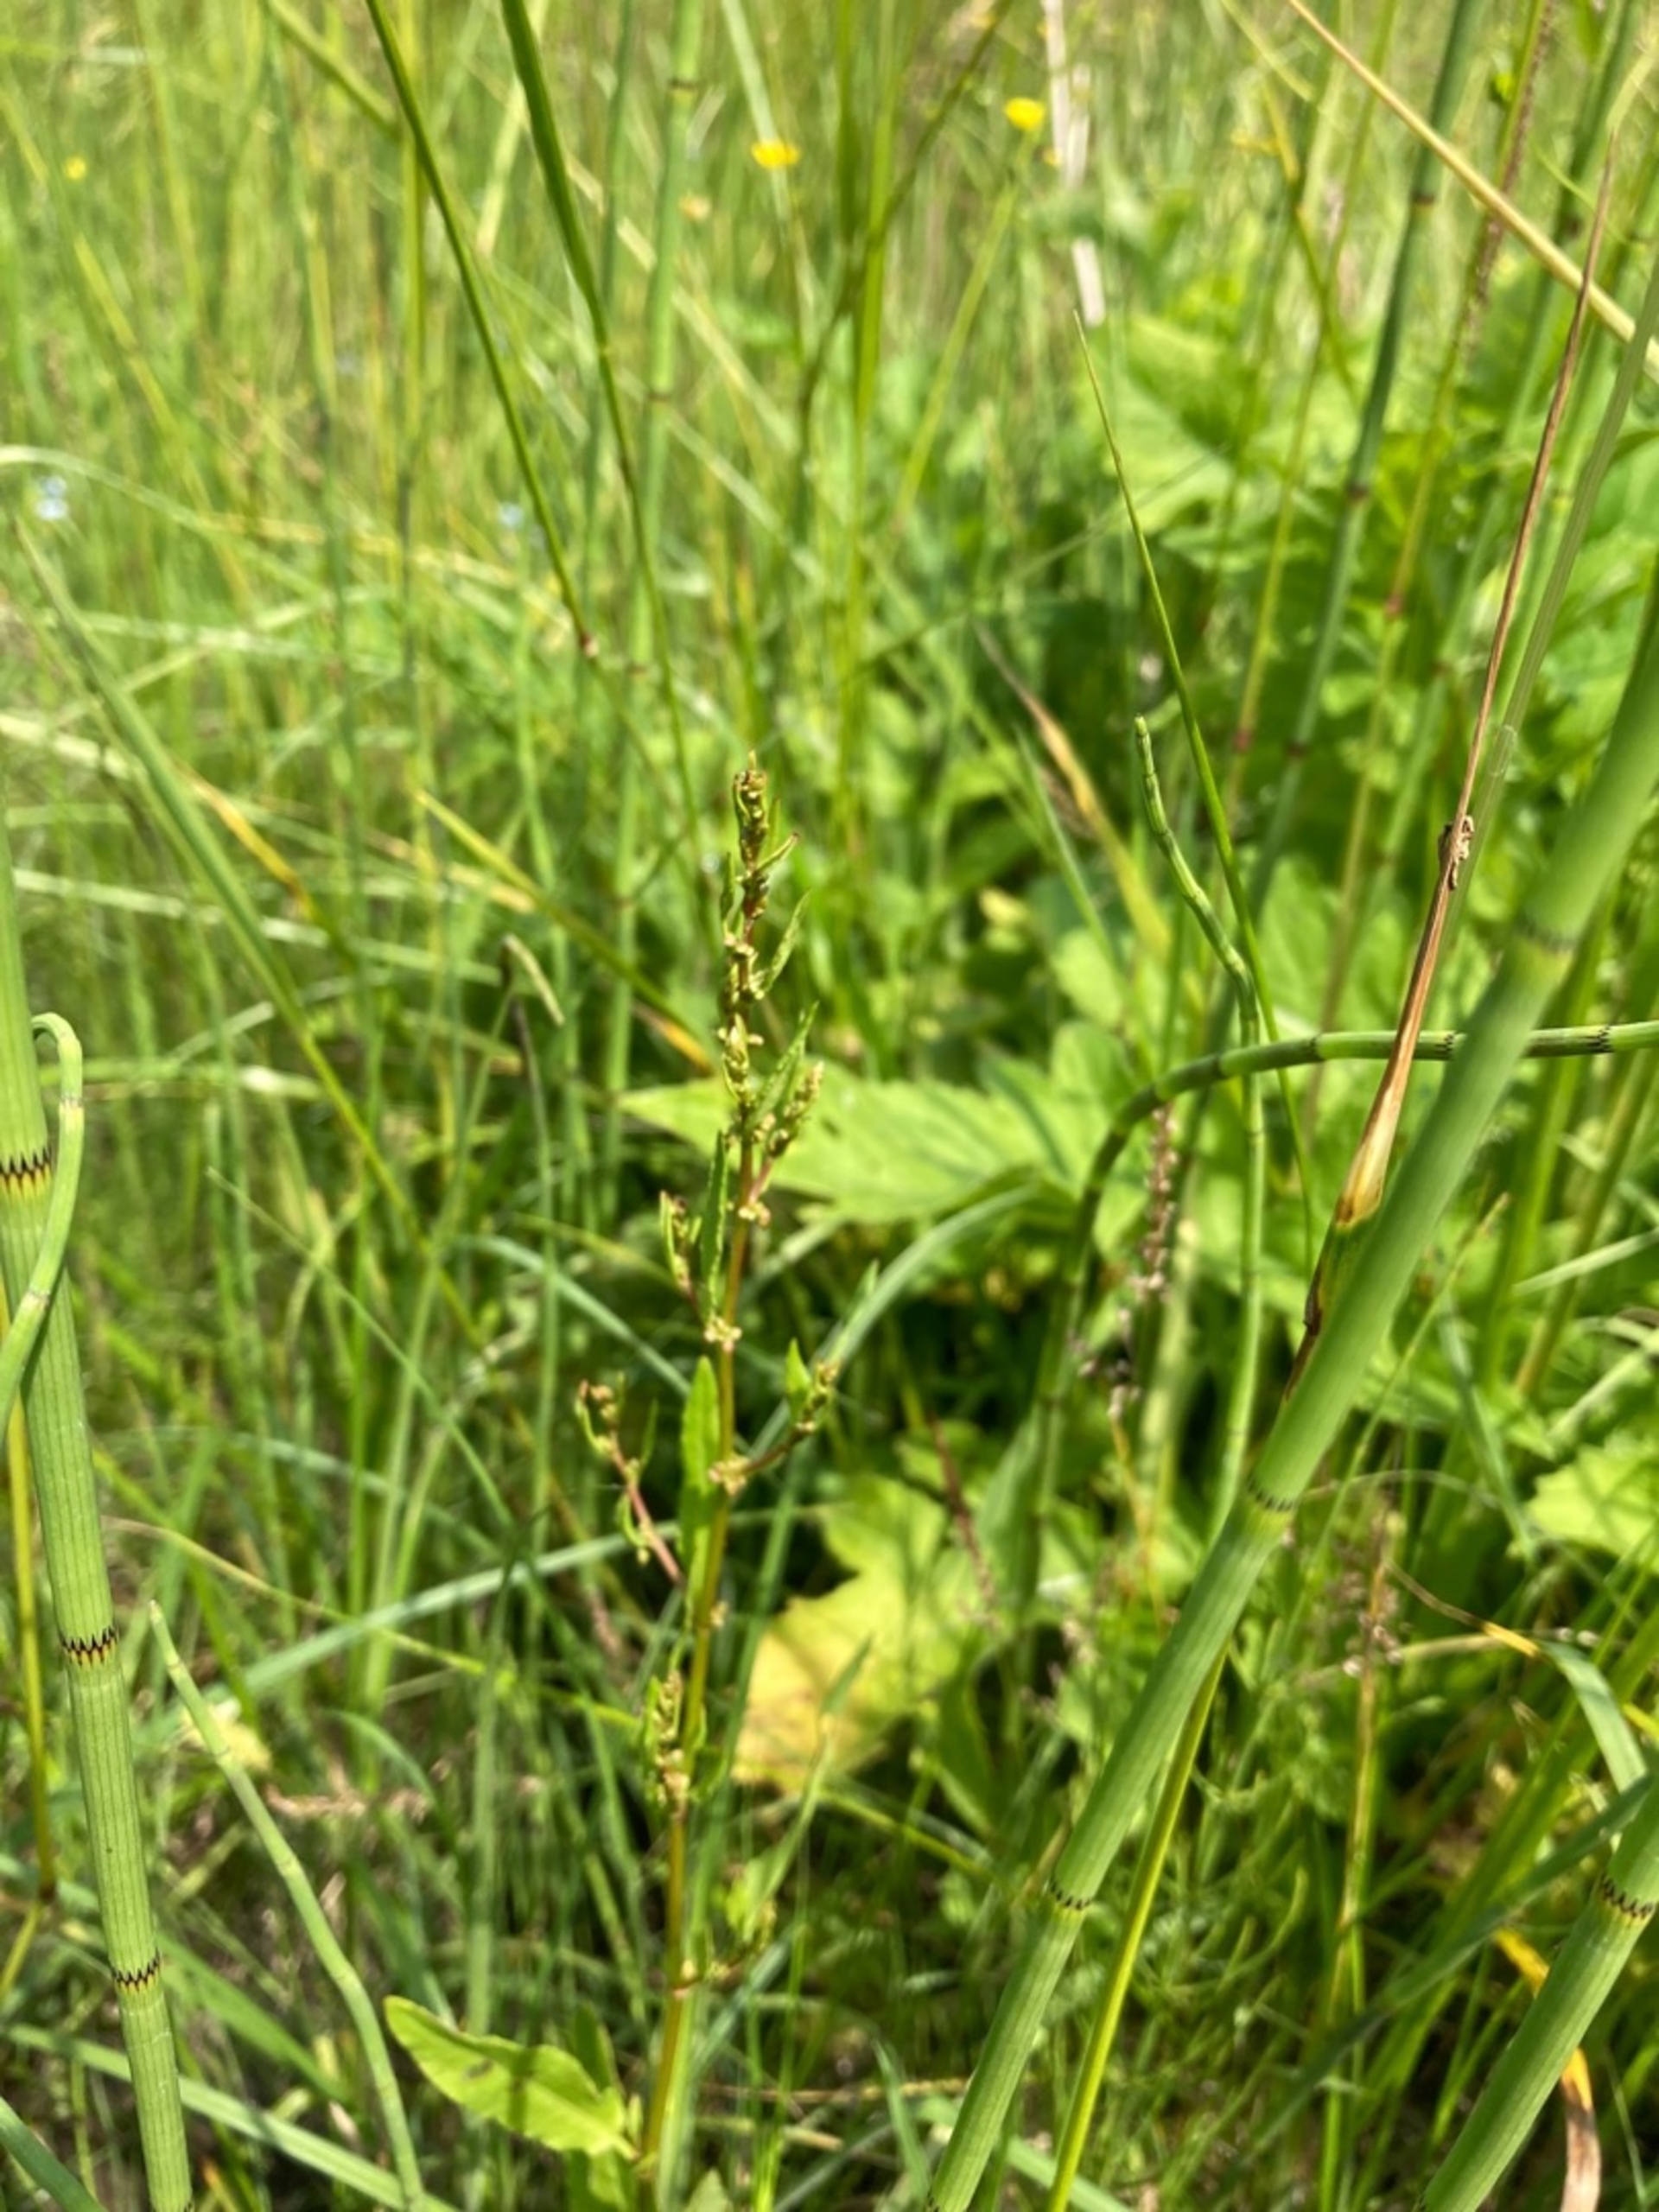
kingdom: Plantae
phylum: Tracheophyta
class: Magnoliopsida
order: Caryophyllales
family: Polygonaceae
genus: Rumex
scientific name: Rumex conglomeratus
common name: Nøgle-skræppe
